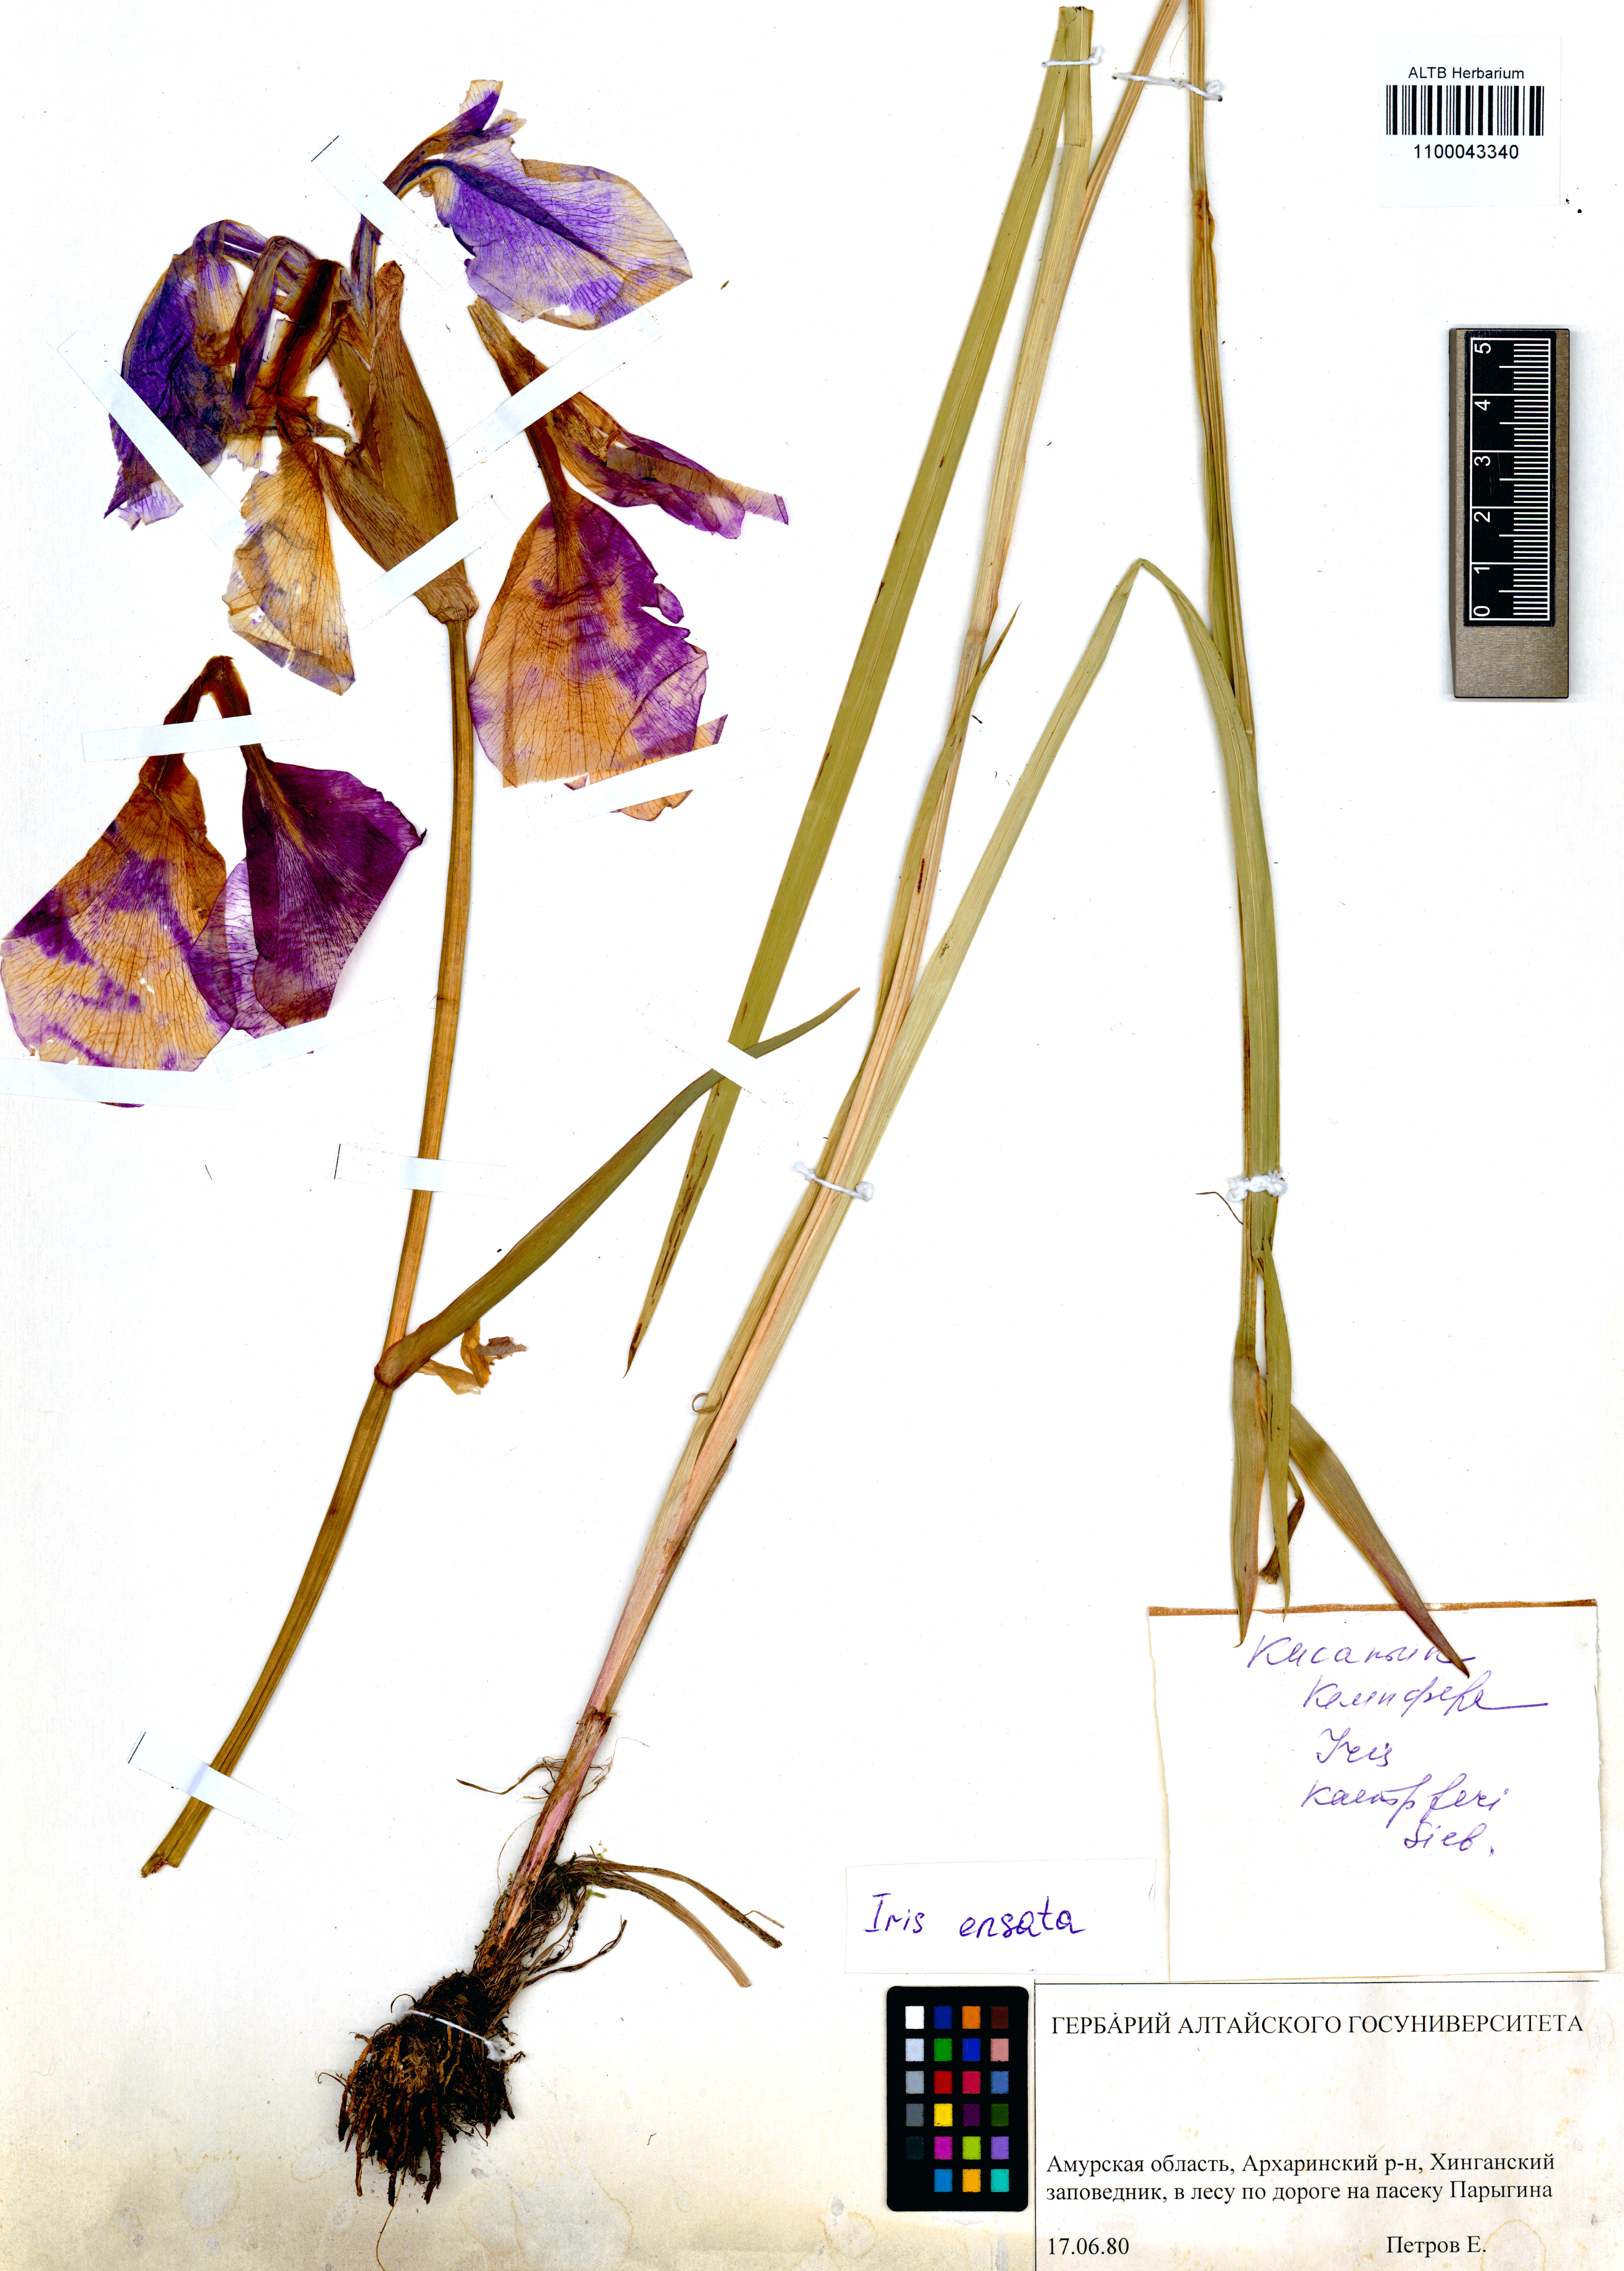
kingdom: Plantae
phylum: Tracheophyta
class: Liliopsida
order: Asparagales
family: Iridaceae
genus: Iris
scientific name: Iris ensata
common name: Beaked iris
